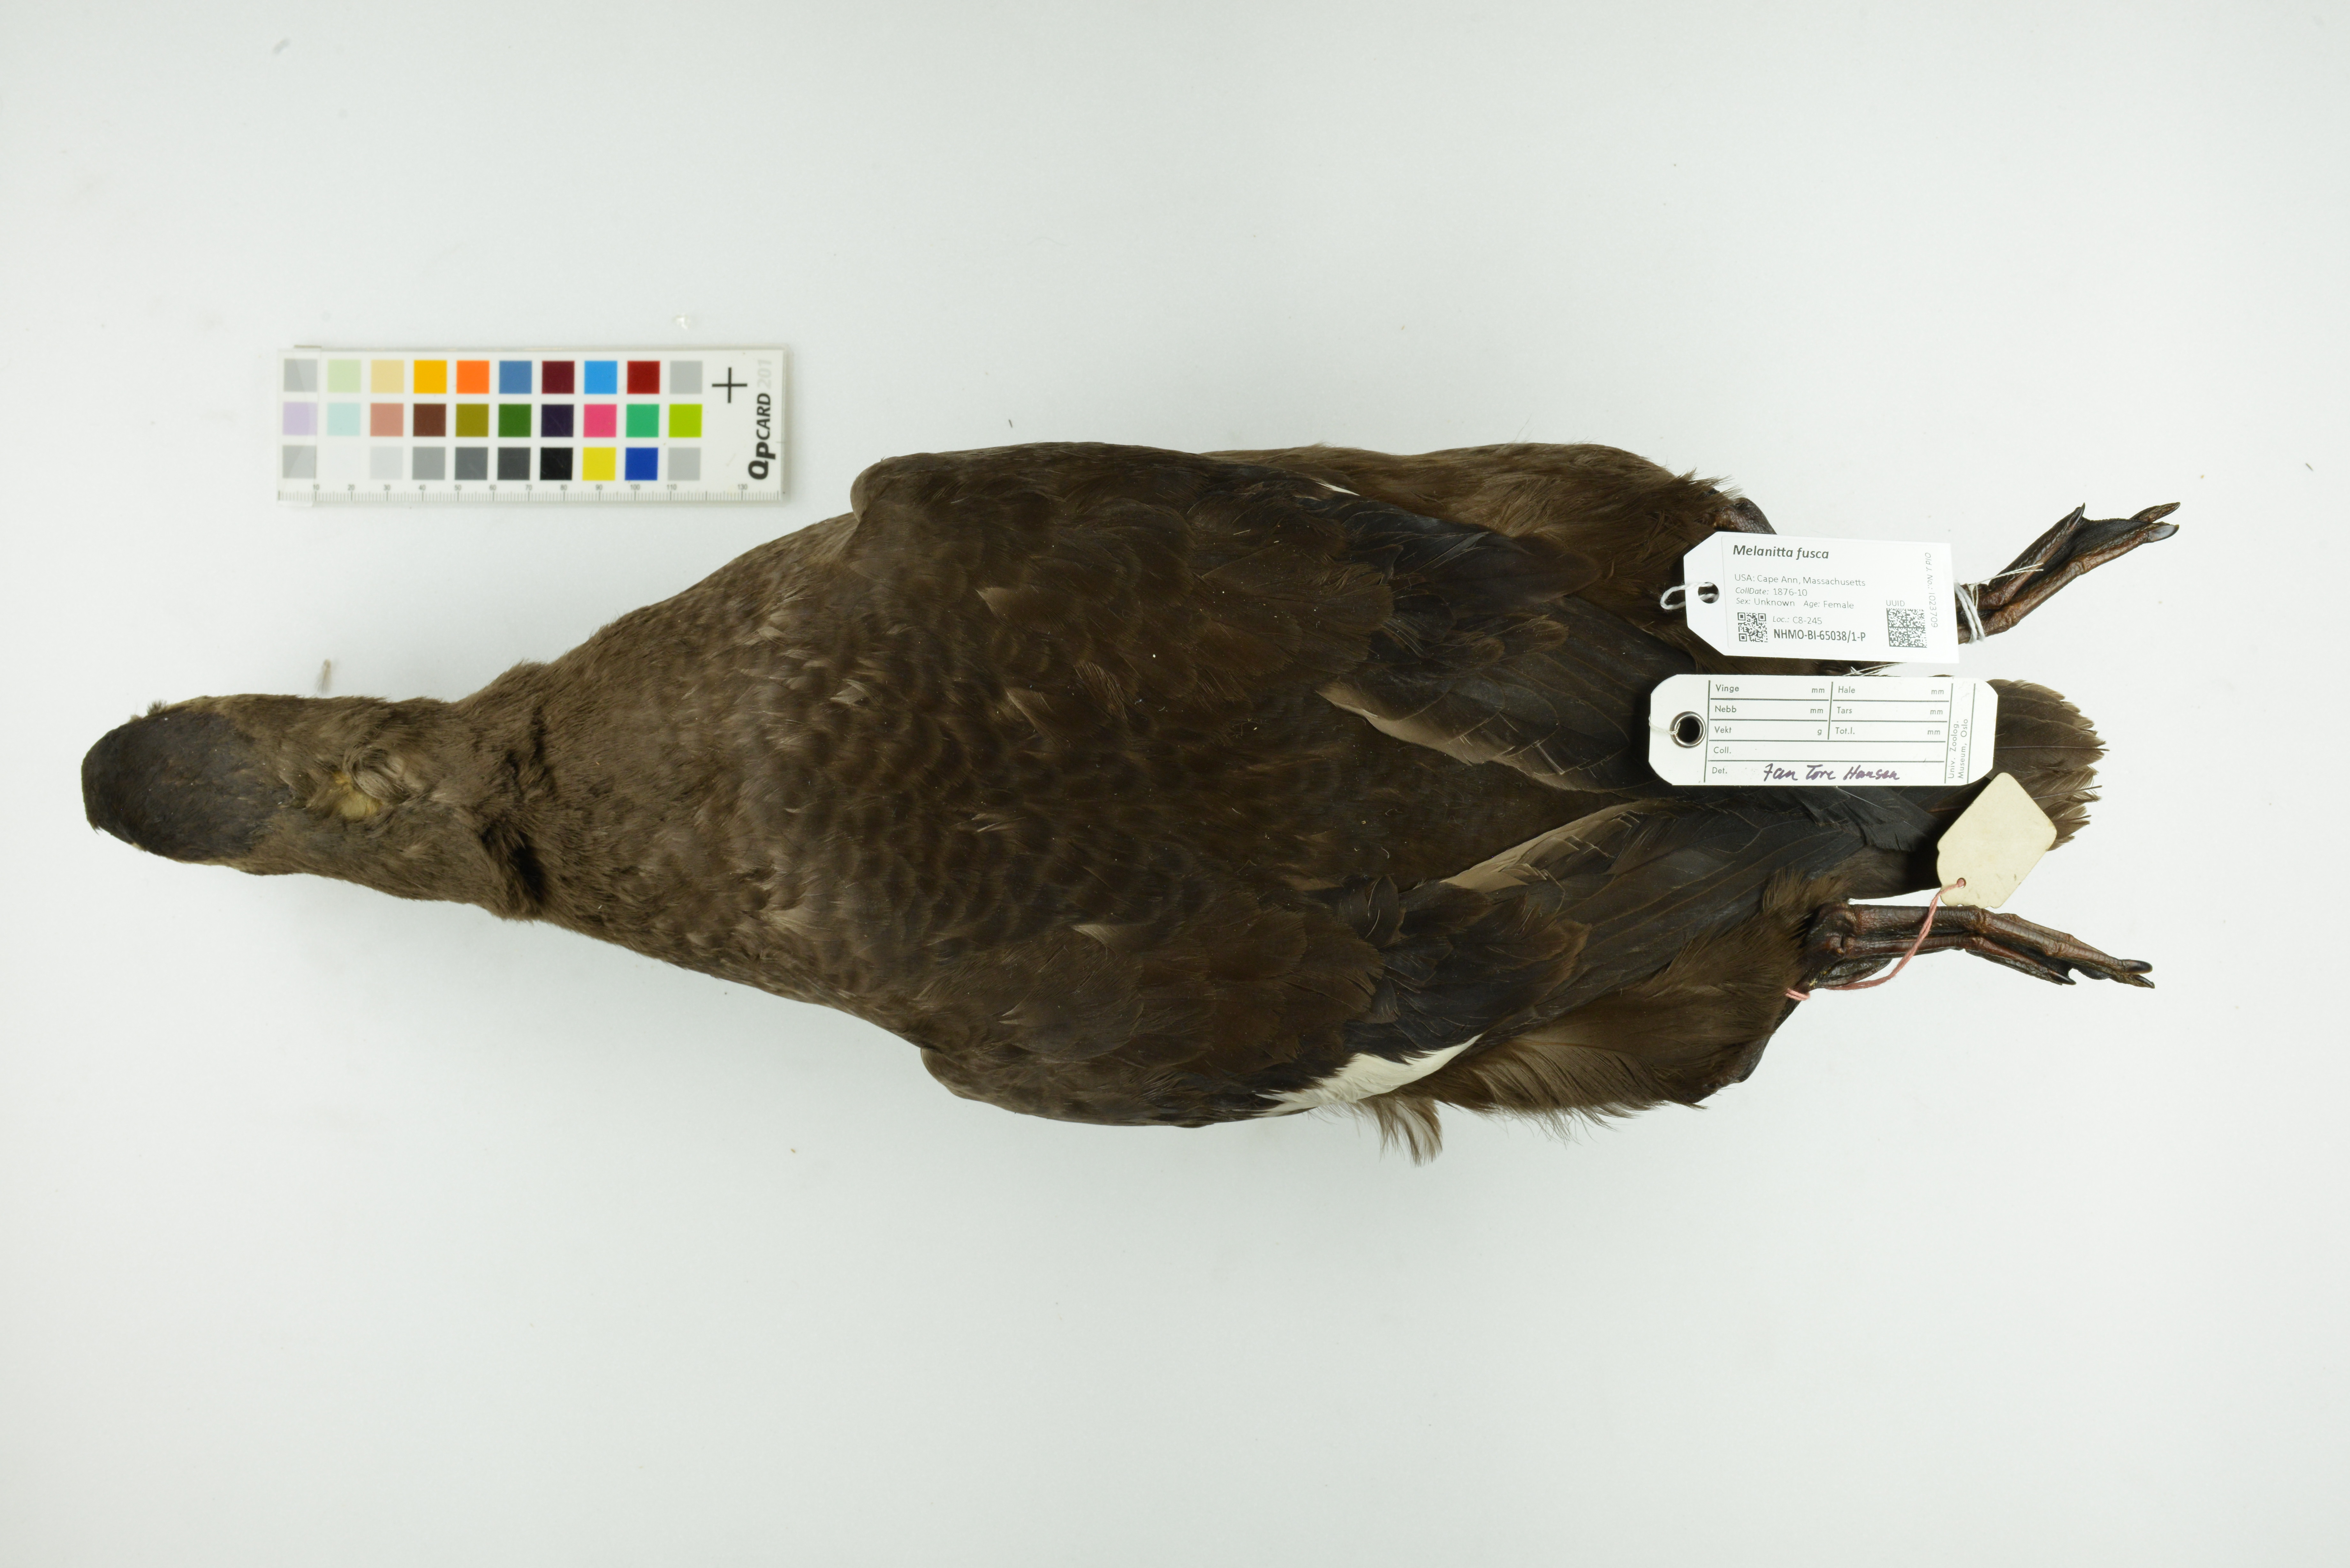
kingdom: Animalia
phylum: Chordata
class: Aves
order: Anseriformes
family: Anatidae
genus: Melanitta
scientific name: Melanitta fusca
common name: Velvet scoter
